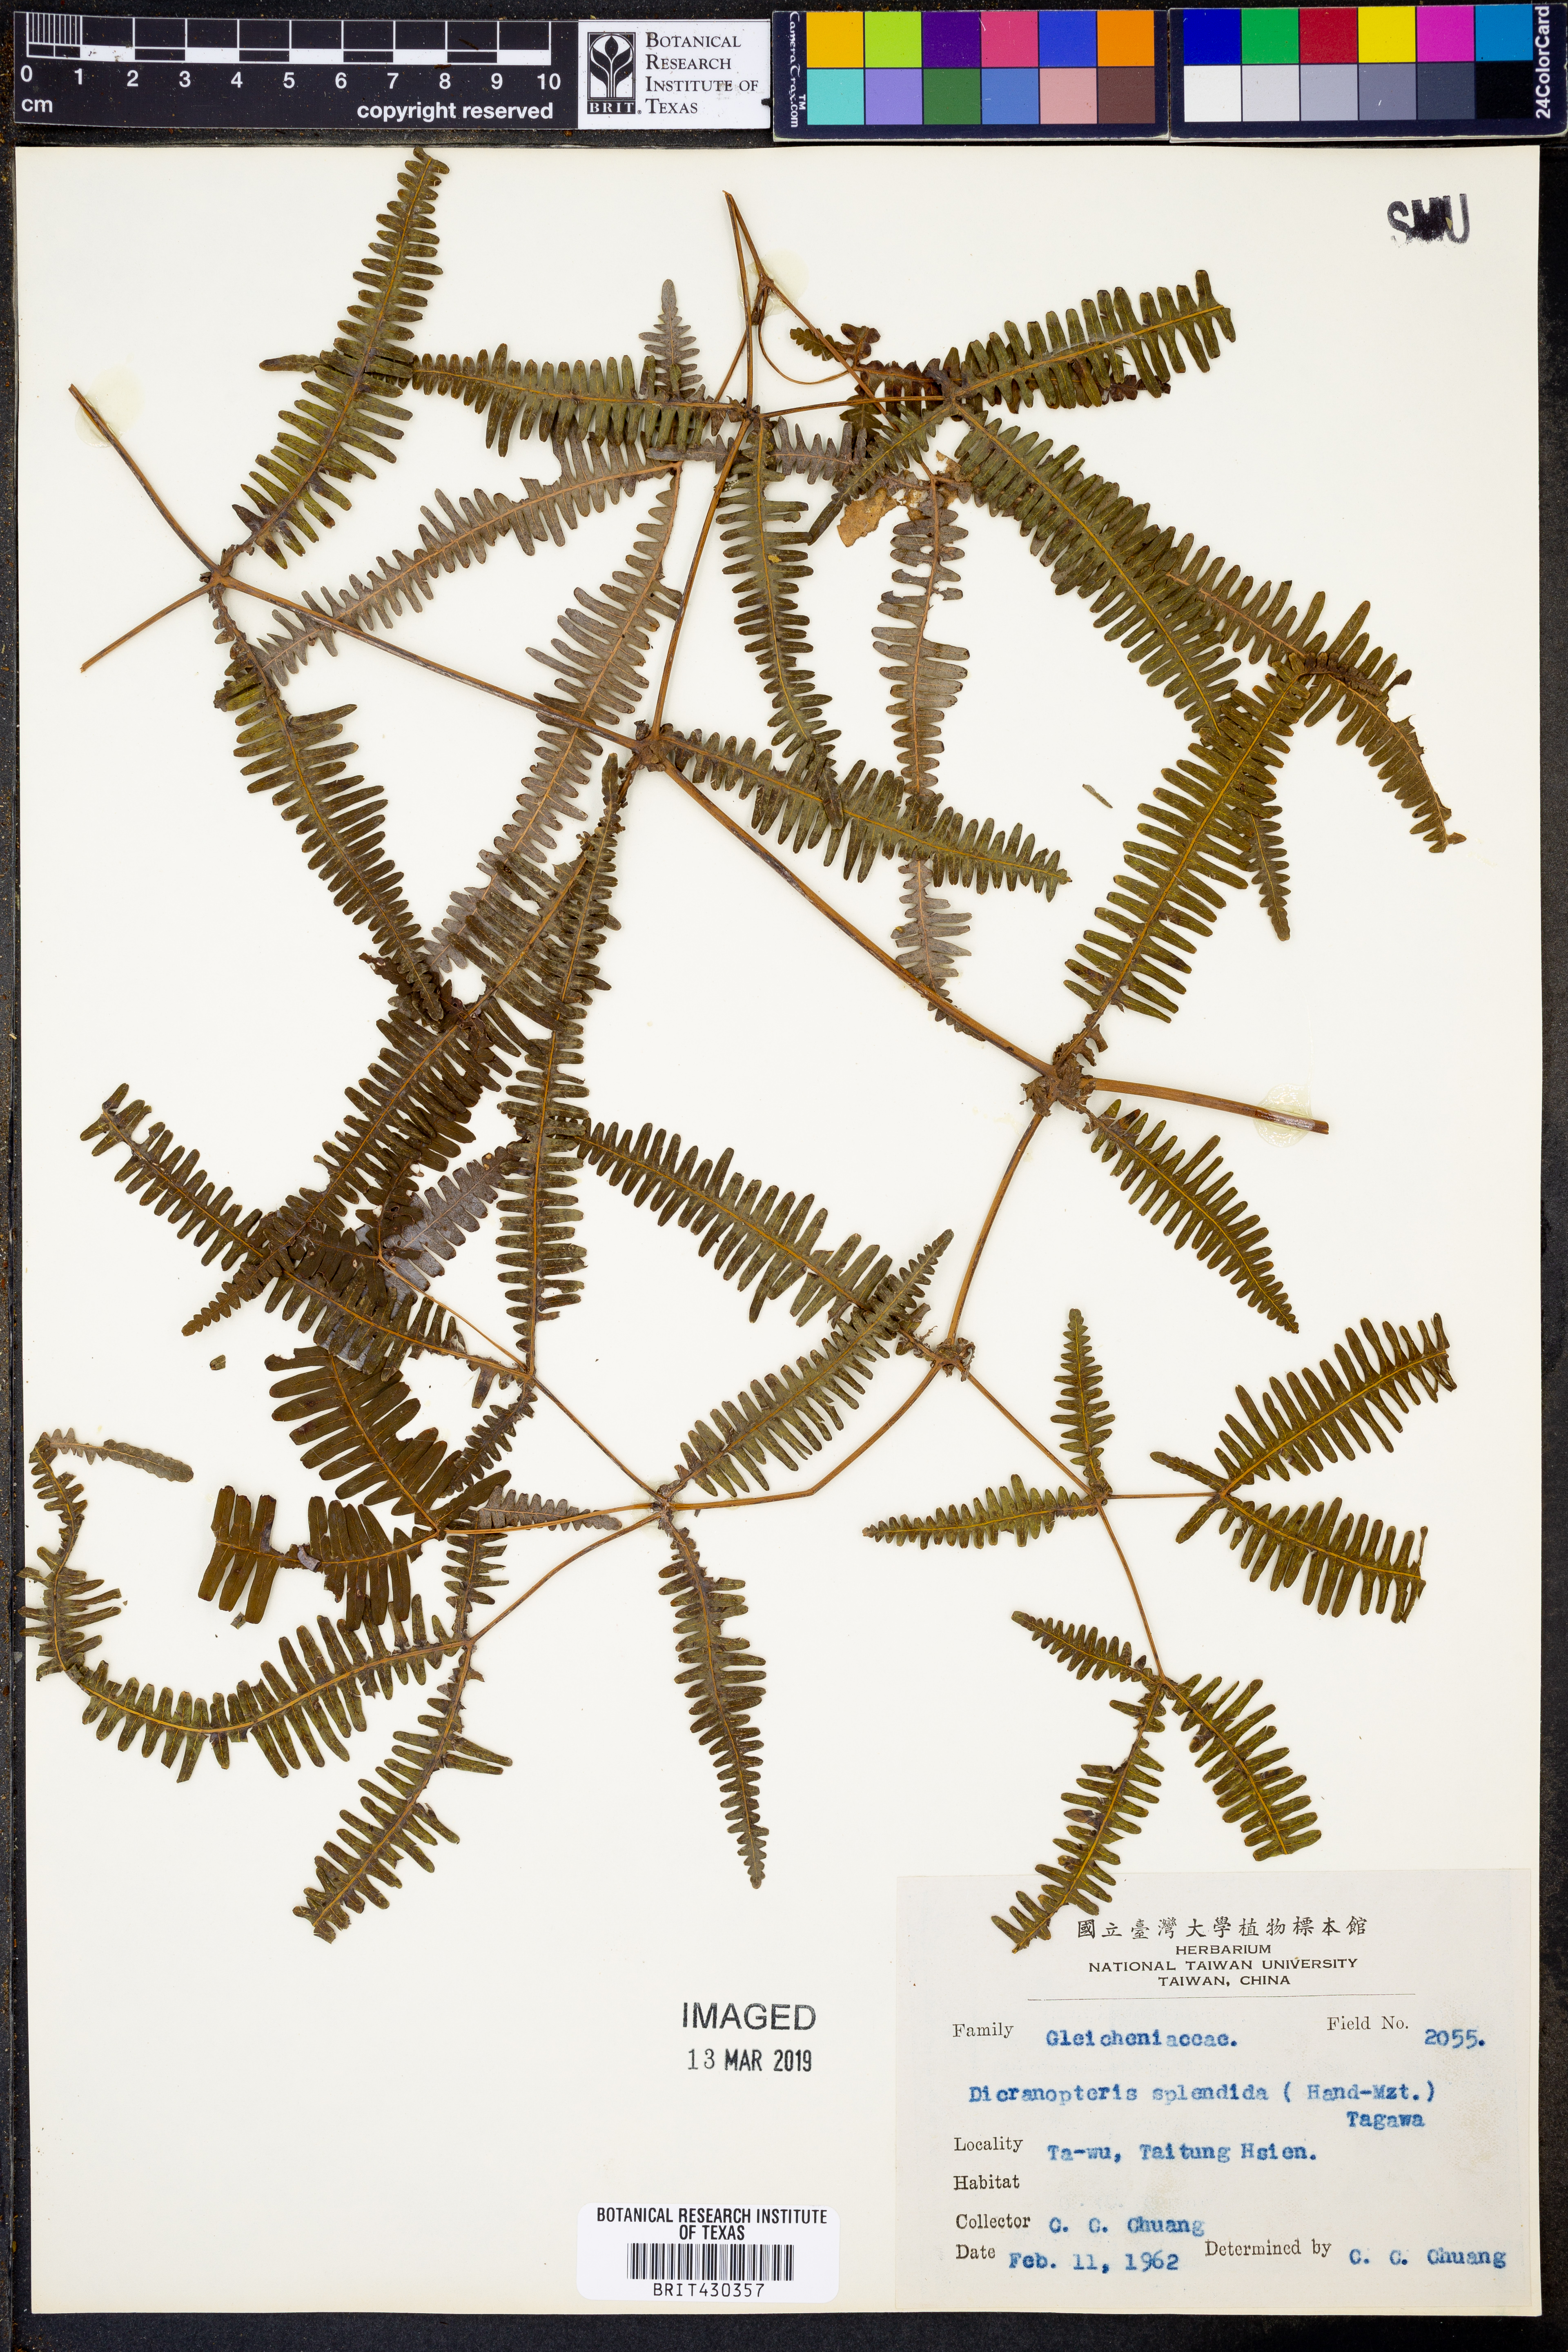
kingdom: Plantae
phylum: Tracheophyta
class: Polypodiopsida
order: Gleicheniales
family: Gleicheniaceae
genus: Dicranopteris
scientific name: Dicranopteris splendida
